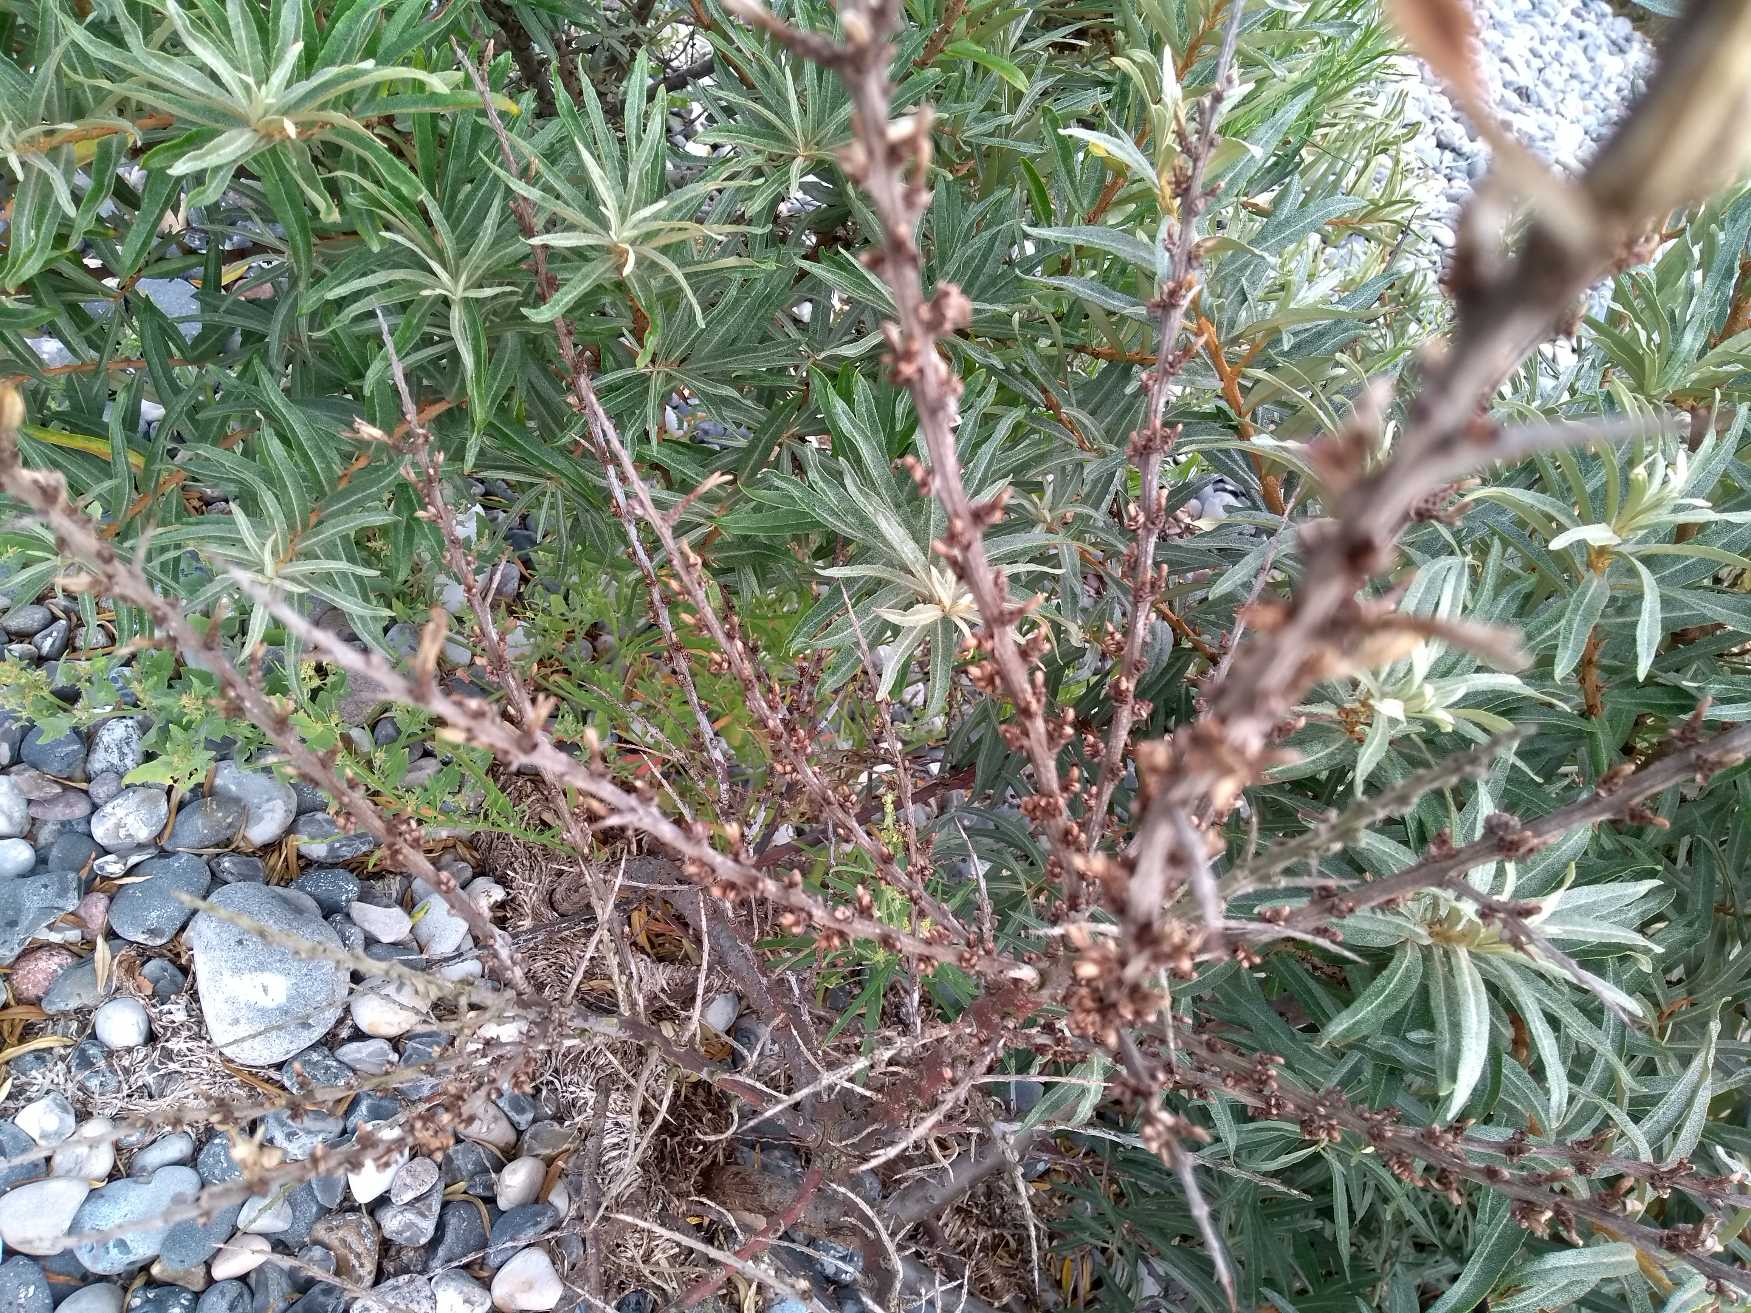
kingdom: Plantae
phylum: Tracheophyta
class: Magnoliopsida
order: Rosales
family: Elaeagnaceae
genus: Hippophae
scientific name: Hippophae rhamnoides
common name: Havtorn
